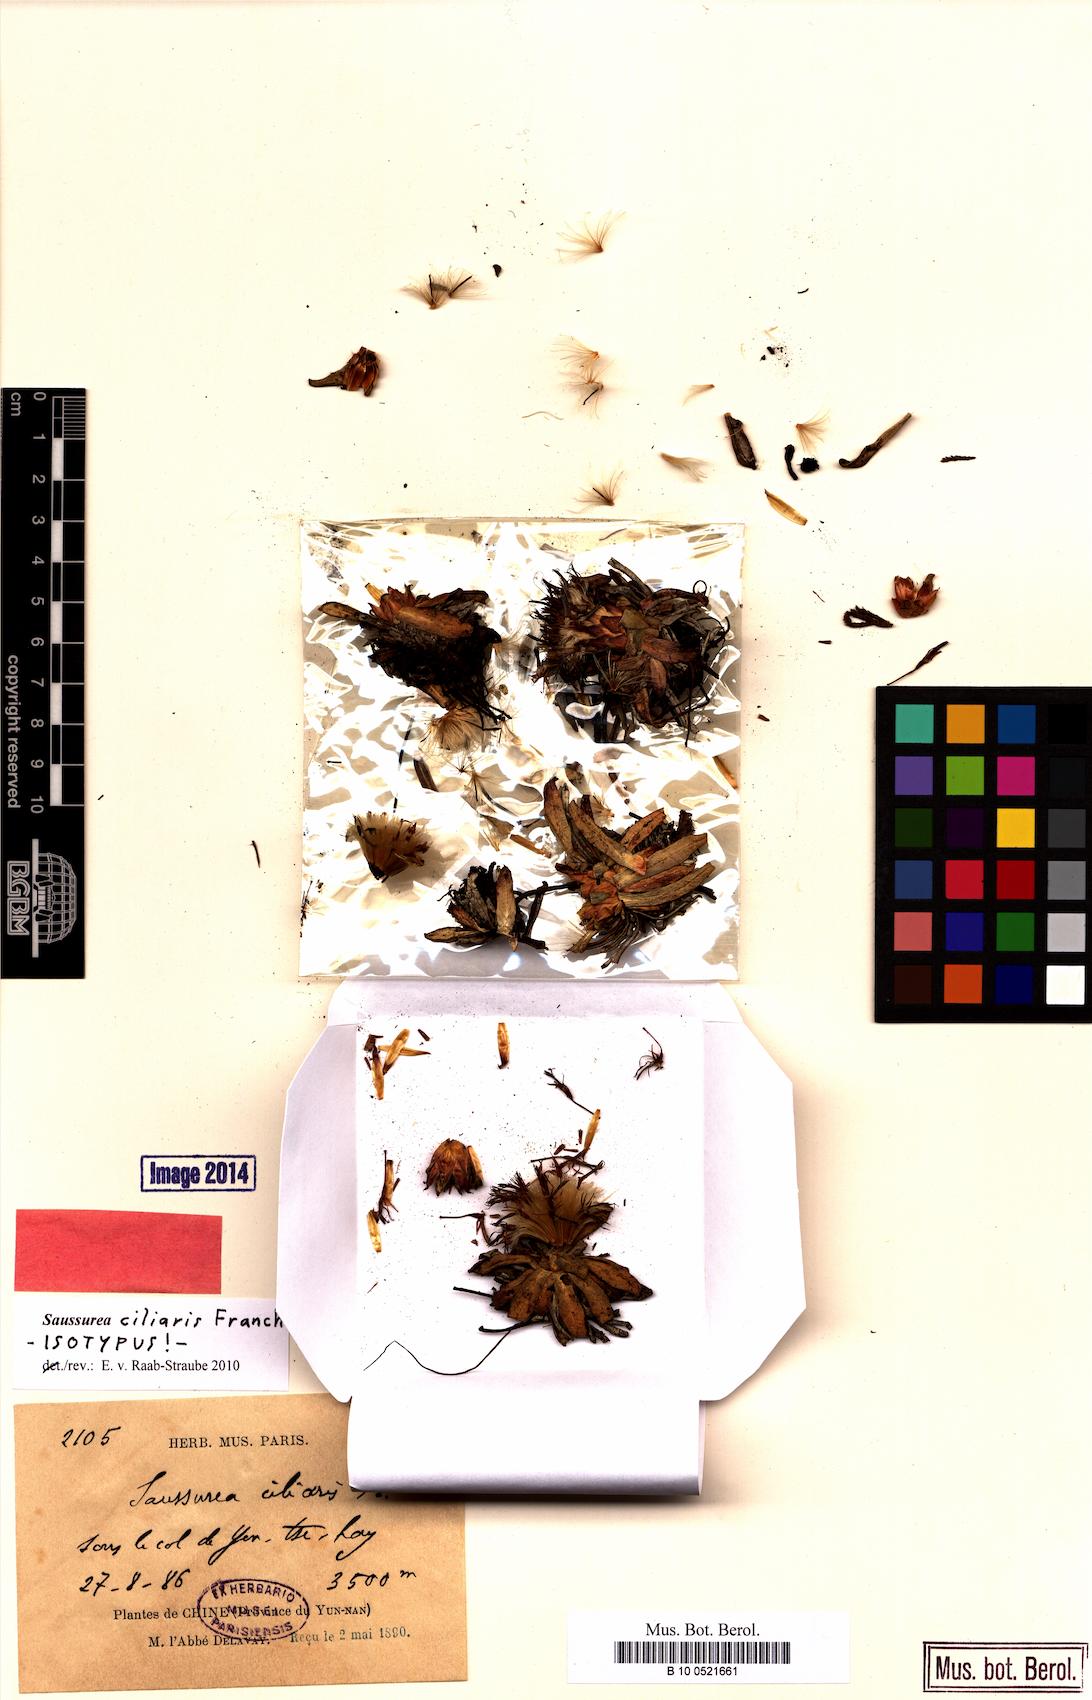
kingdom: Plantae
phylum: Tracheophyta
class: Magnoliopsida
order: Asterales
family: Asteraceae
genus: Saussurea
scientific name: Saussurea ciliaris
